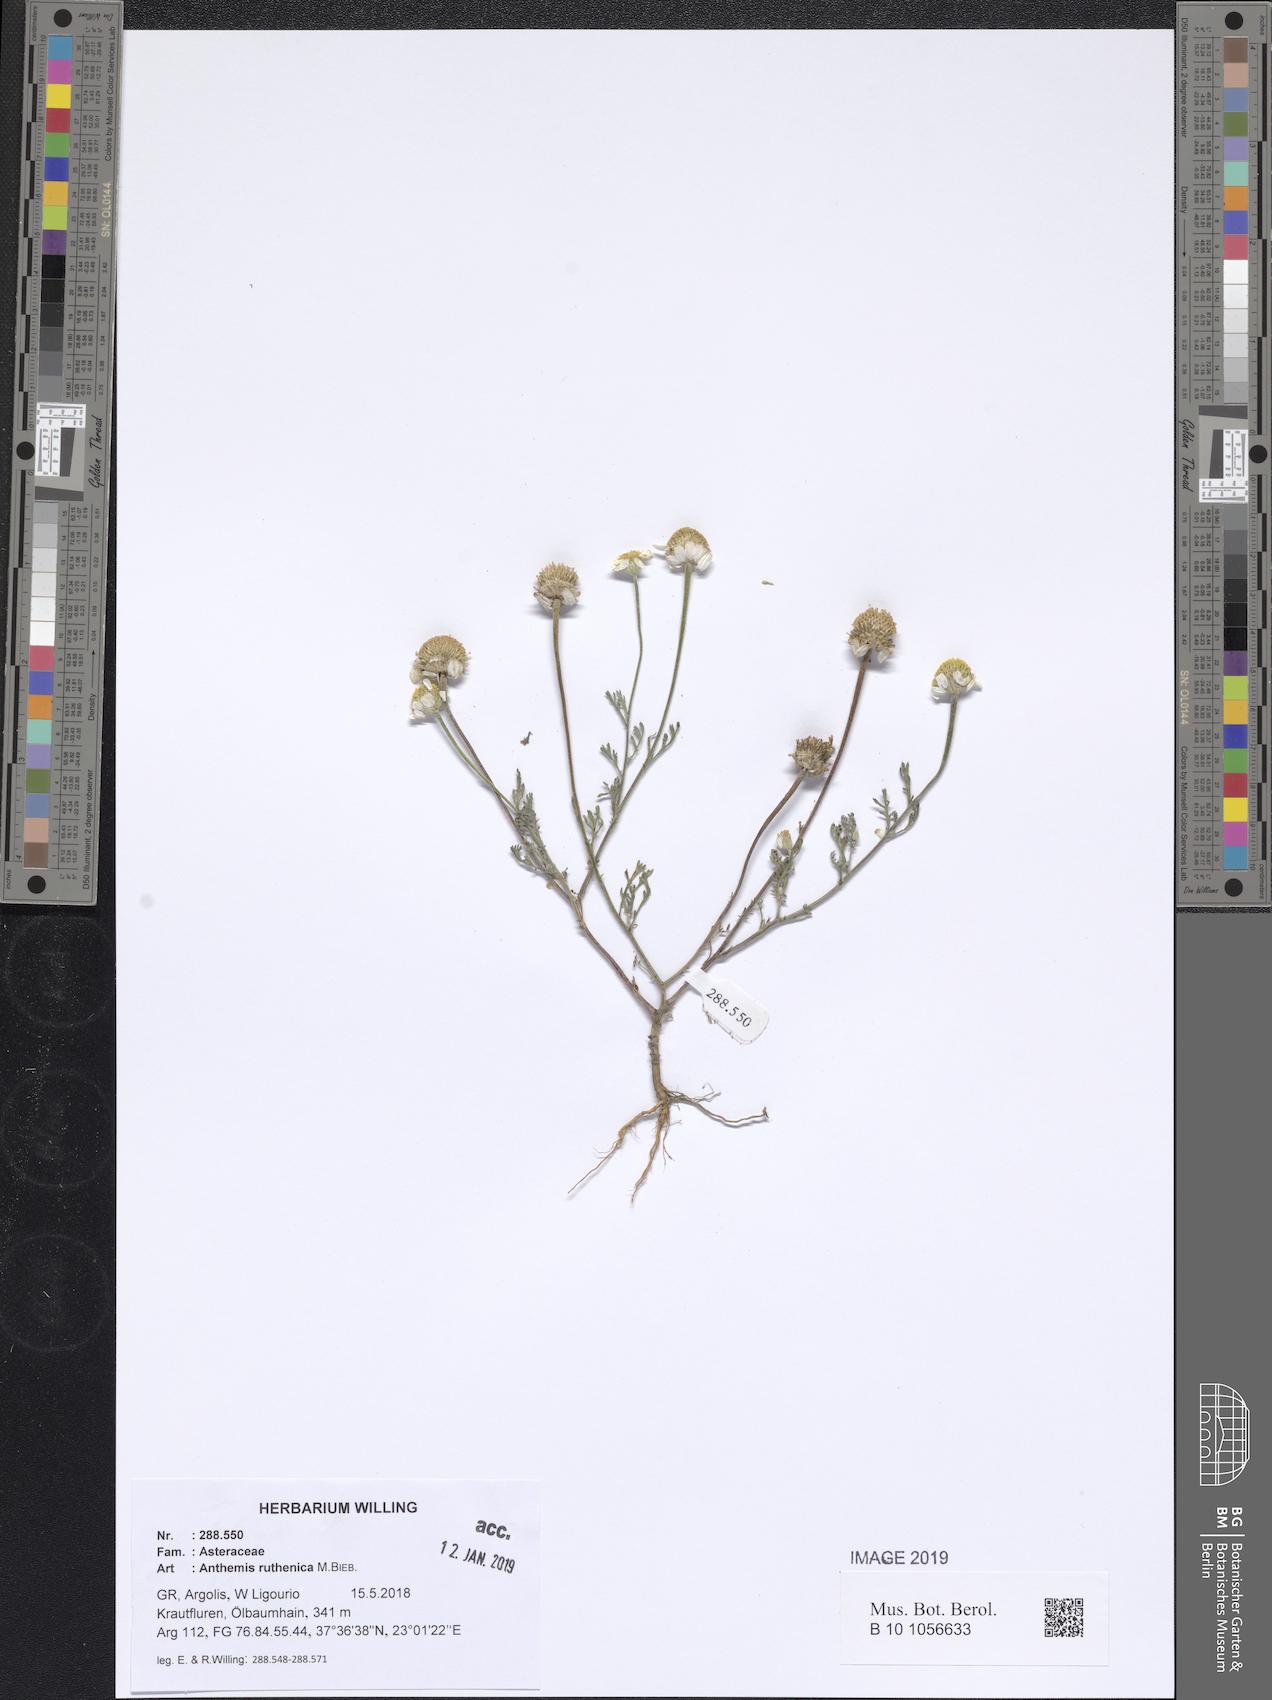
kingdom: Plantae
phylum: Tracheophyta
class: Magnoliopsida
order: Asterales
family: Asteraceae
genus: Anthemis
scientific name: Anthemis ruthenica
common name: Eastern chamomile
